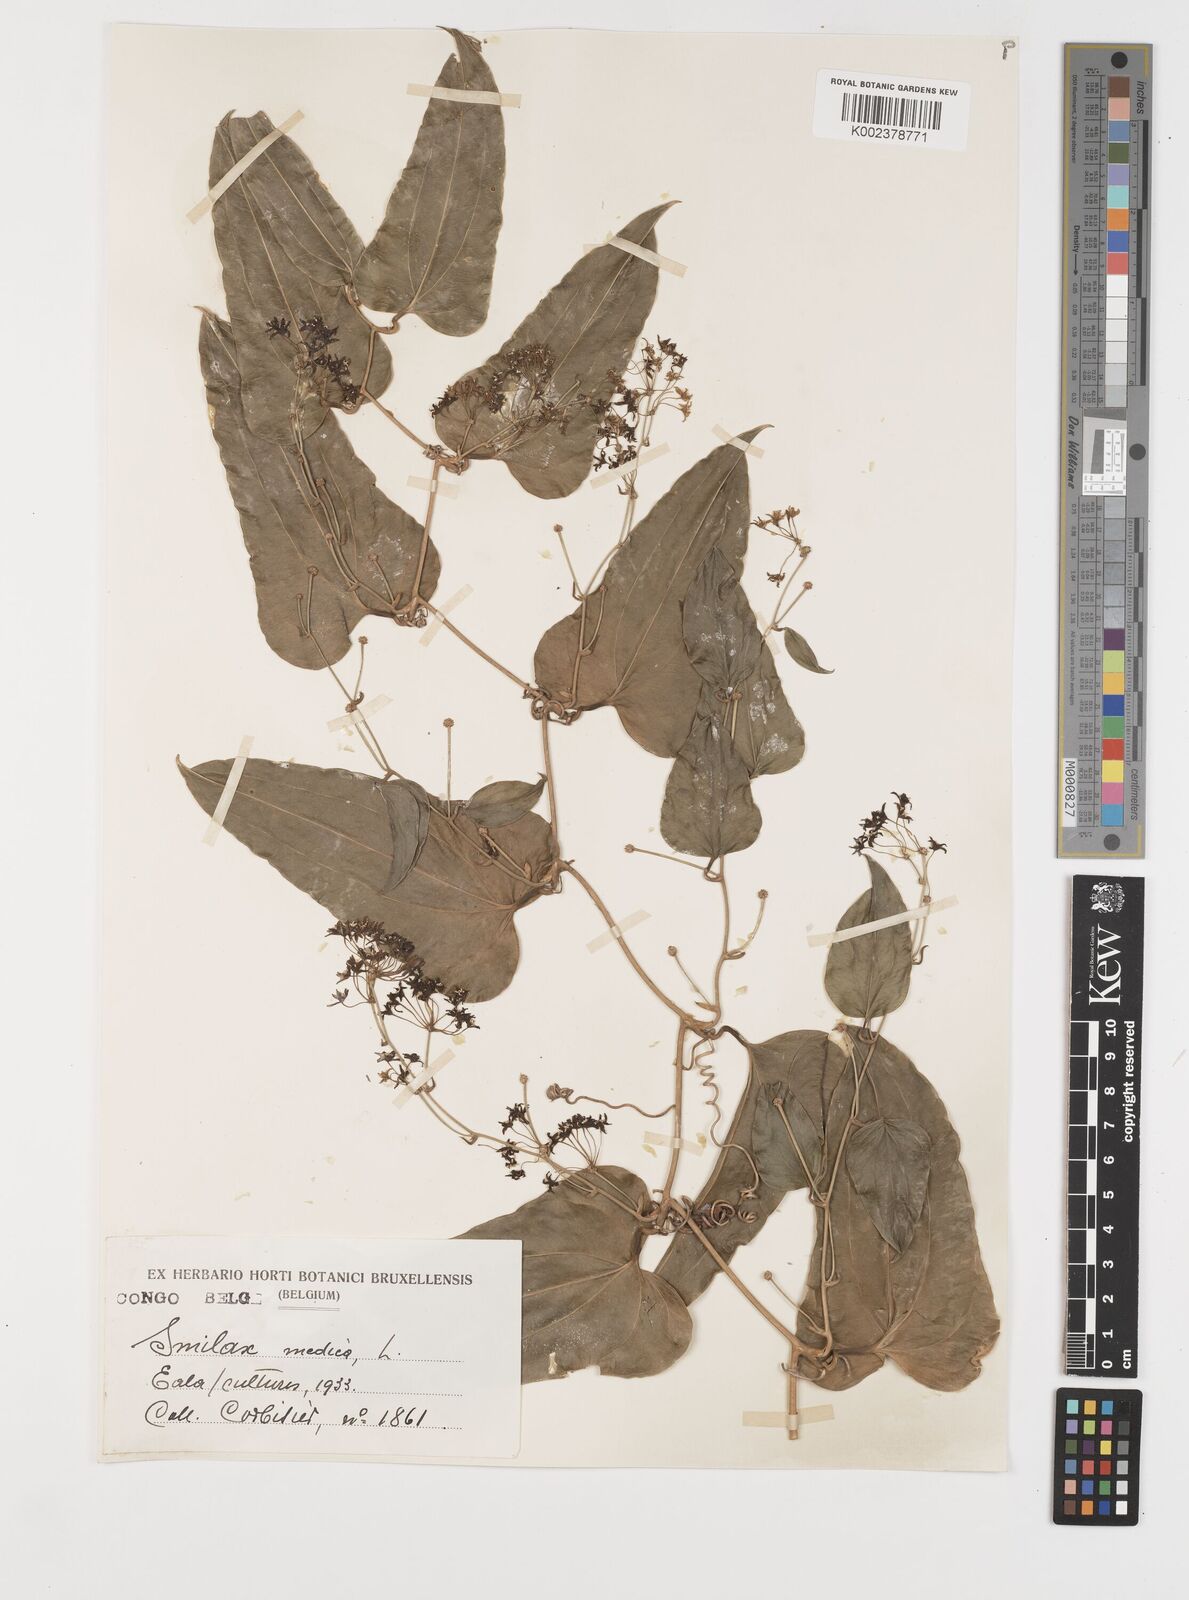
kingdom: Plantae
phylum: Tracheophyta
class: Liliopsida
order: Liliales
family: Smilacaceae
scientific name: Smilacaceae
